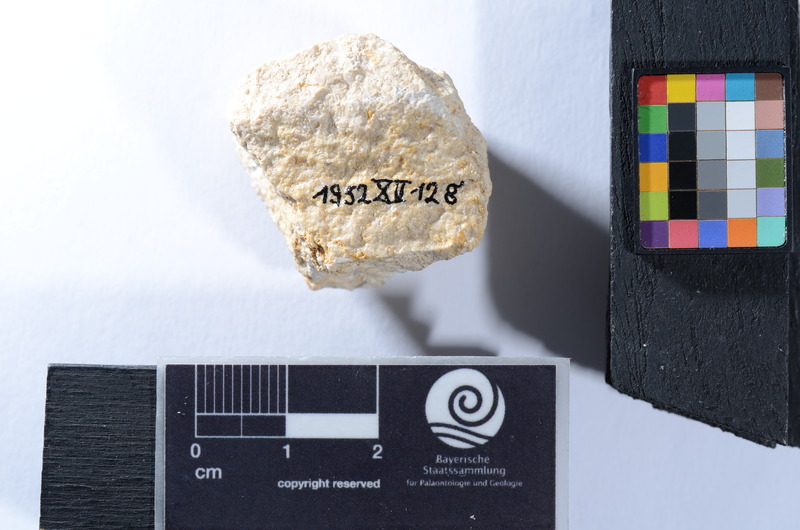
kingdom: Animalia
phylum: Chordata
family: Pycnodontidae
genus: Sphaerodus
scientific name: Sphaerodus
